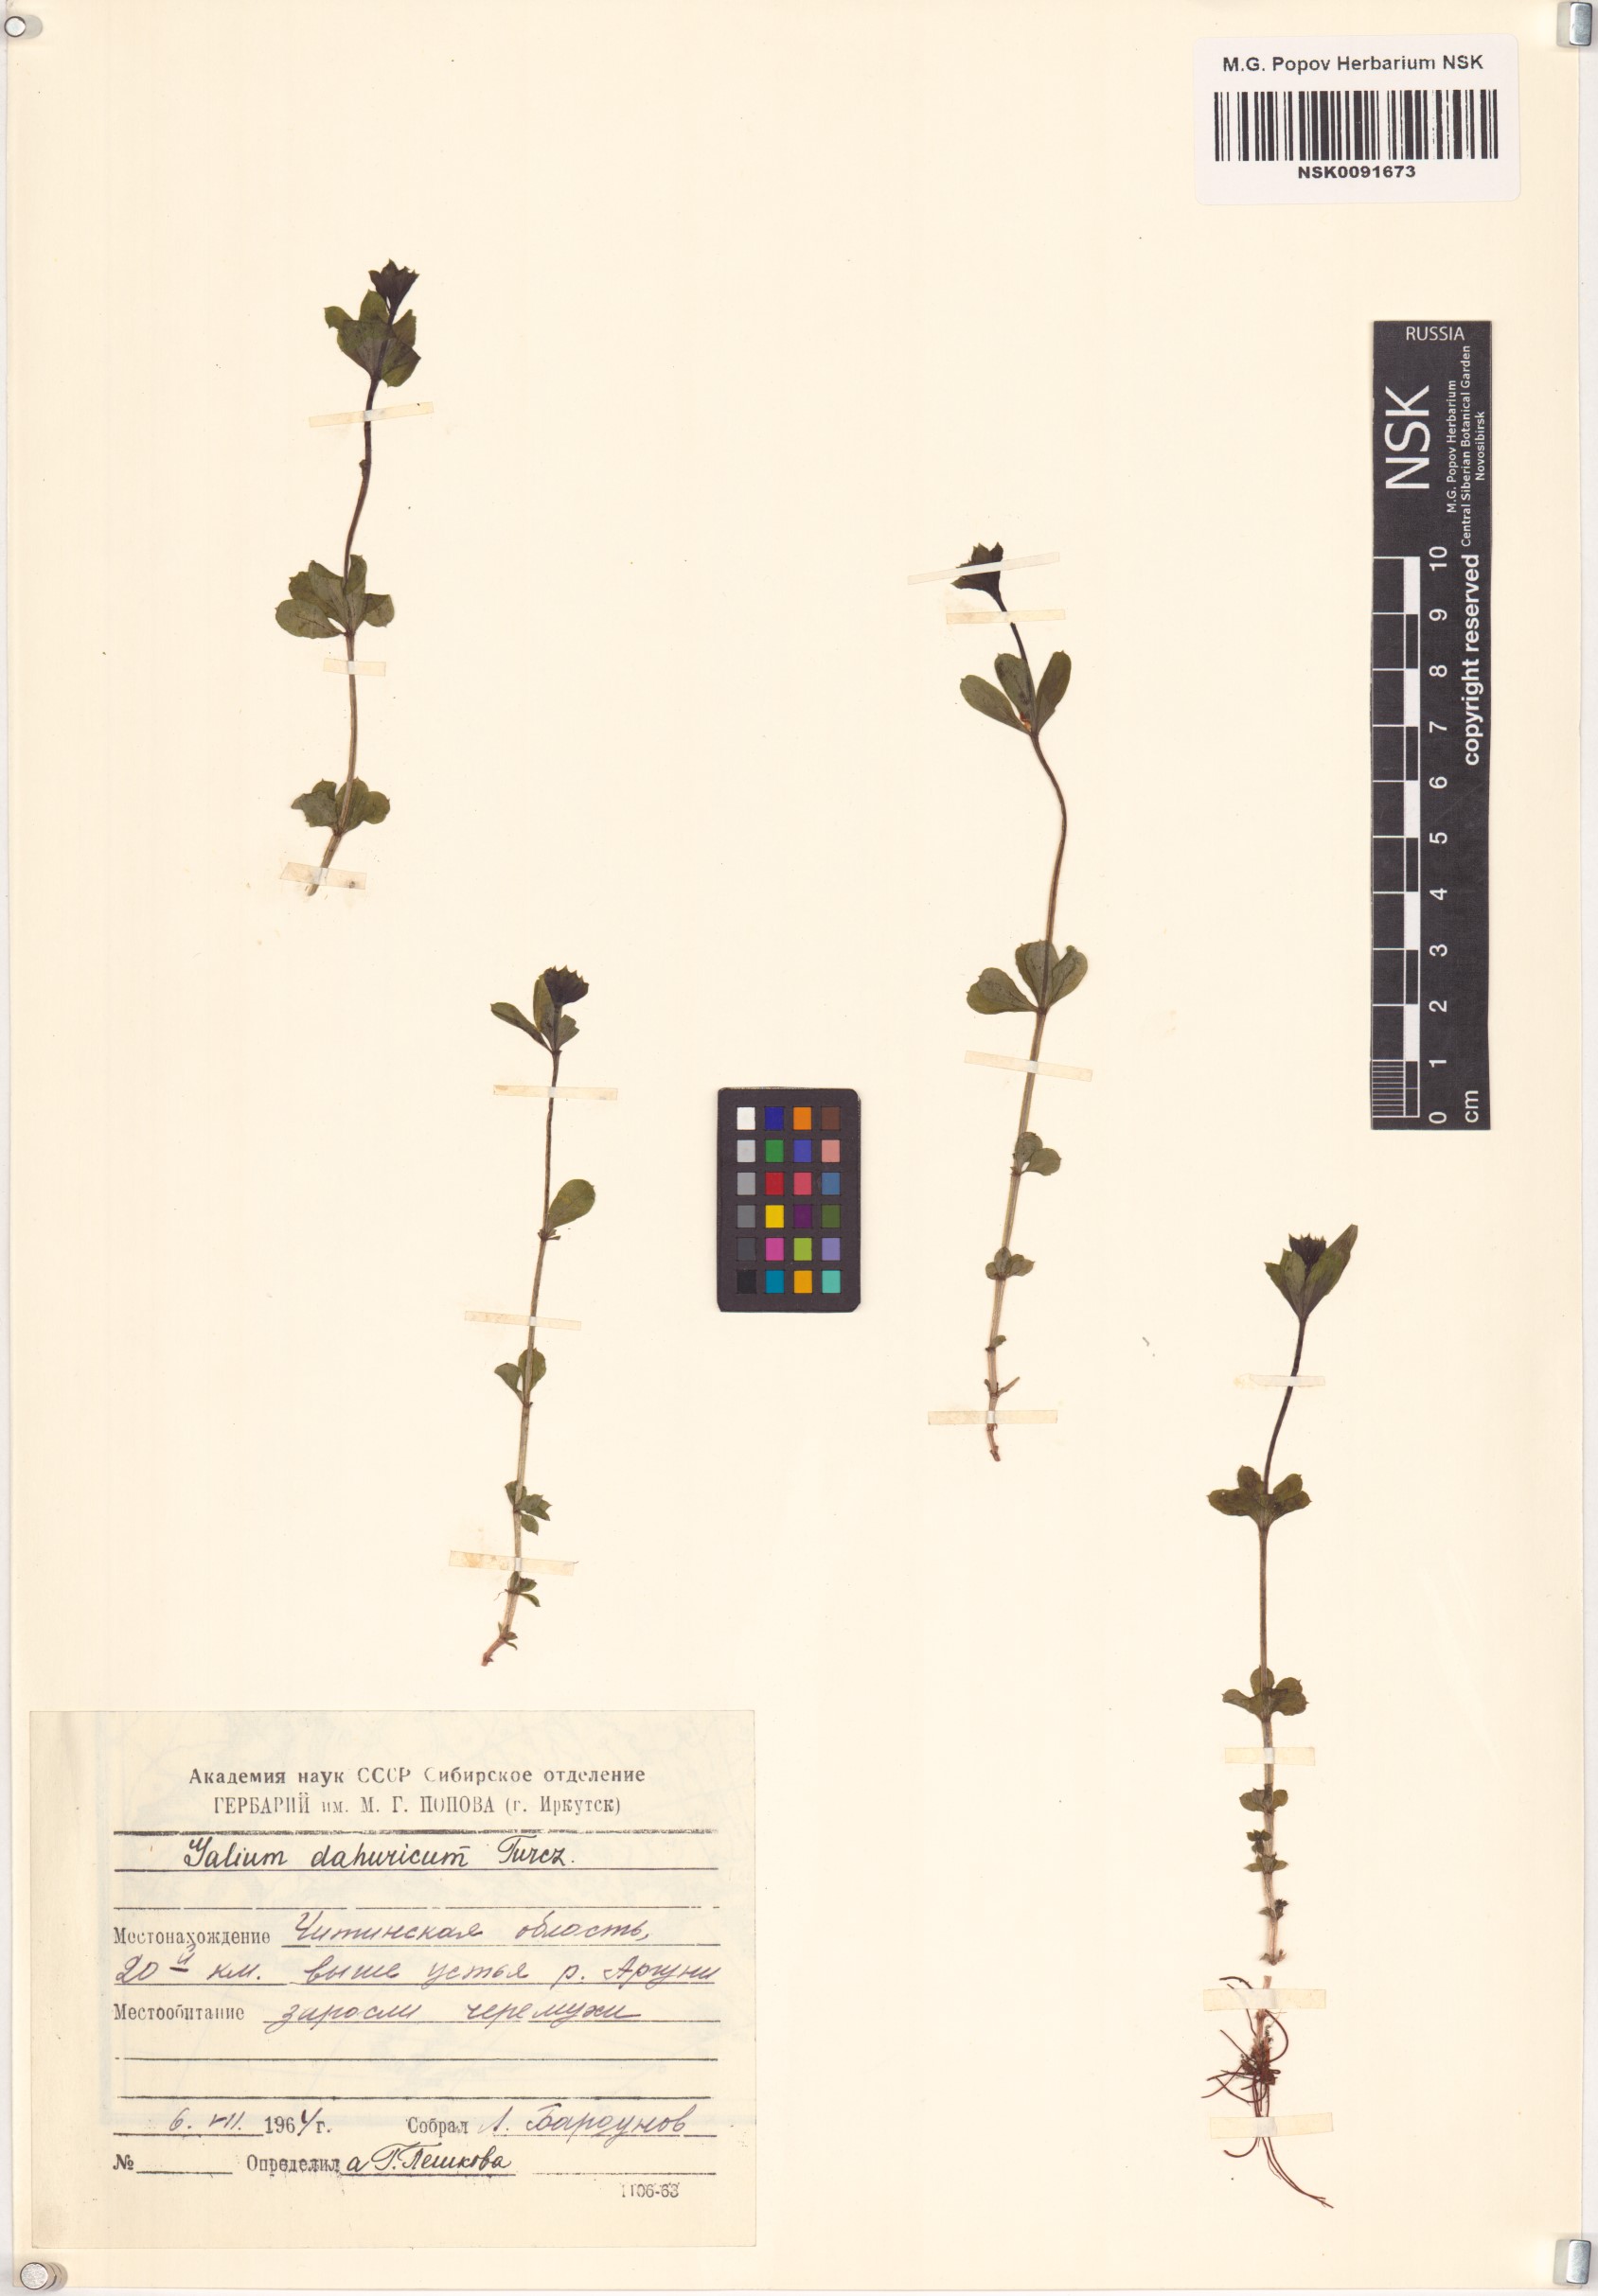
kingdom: Plantae
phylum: Tracheophyta
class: Magnoliopsida
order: Gentianales
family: Rubiaceae
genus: Galium
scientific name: Galium dahuricum
